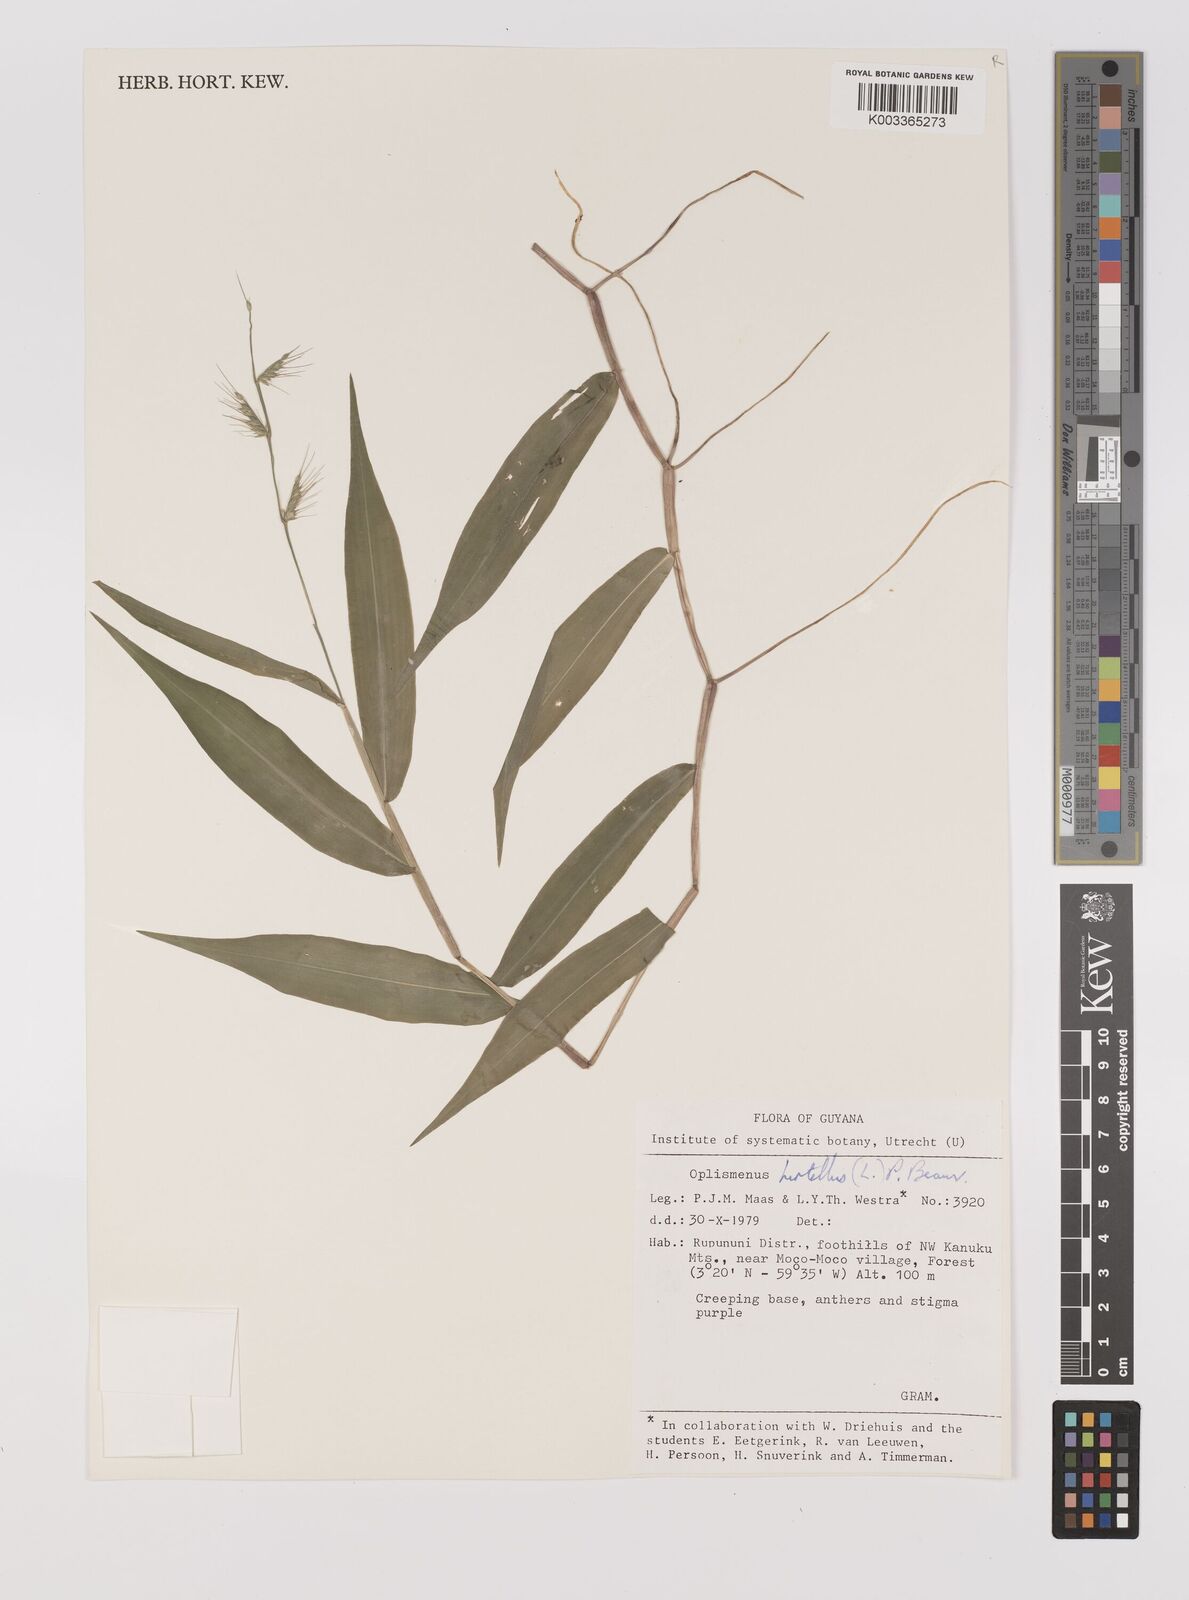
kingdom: Plantae
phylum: Tracheophyta
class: Liliopsida
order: Poales
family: Poaceae
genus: Oplismenus
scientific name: Oplismenus hirtellus
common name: Basketgrass
